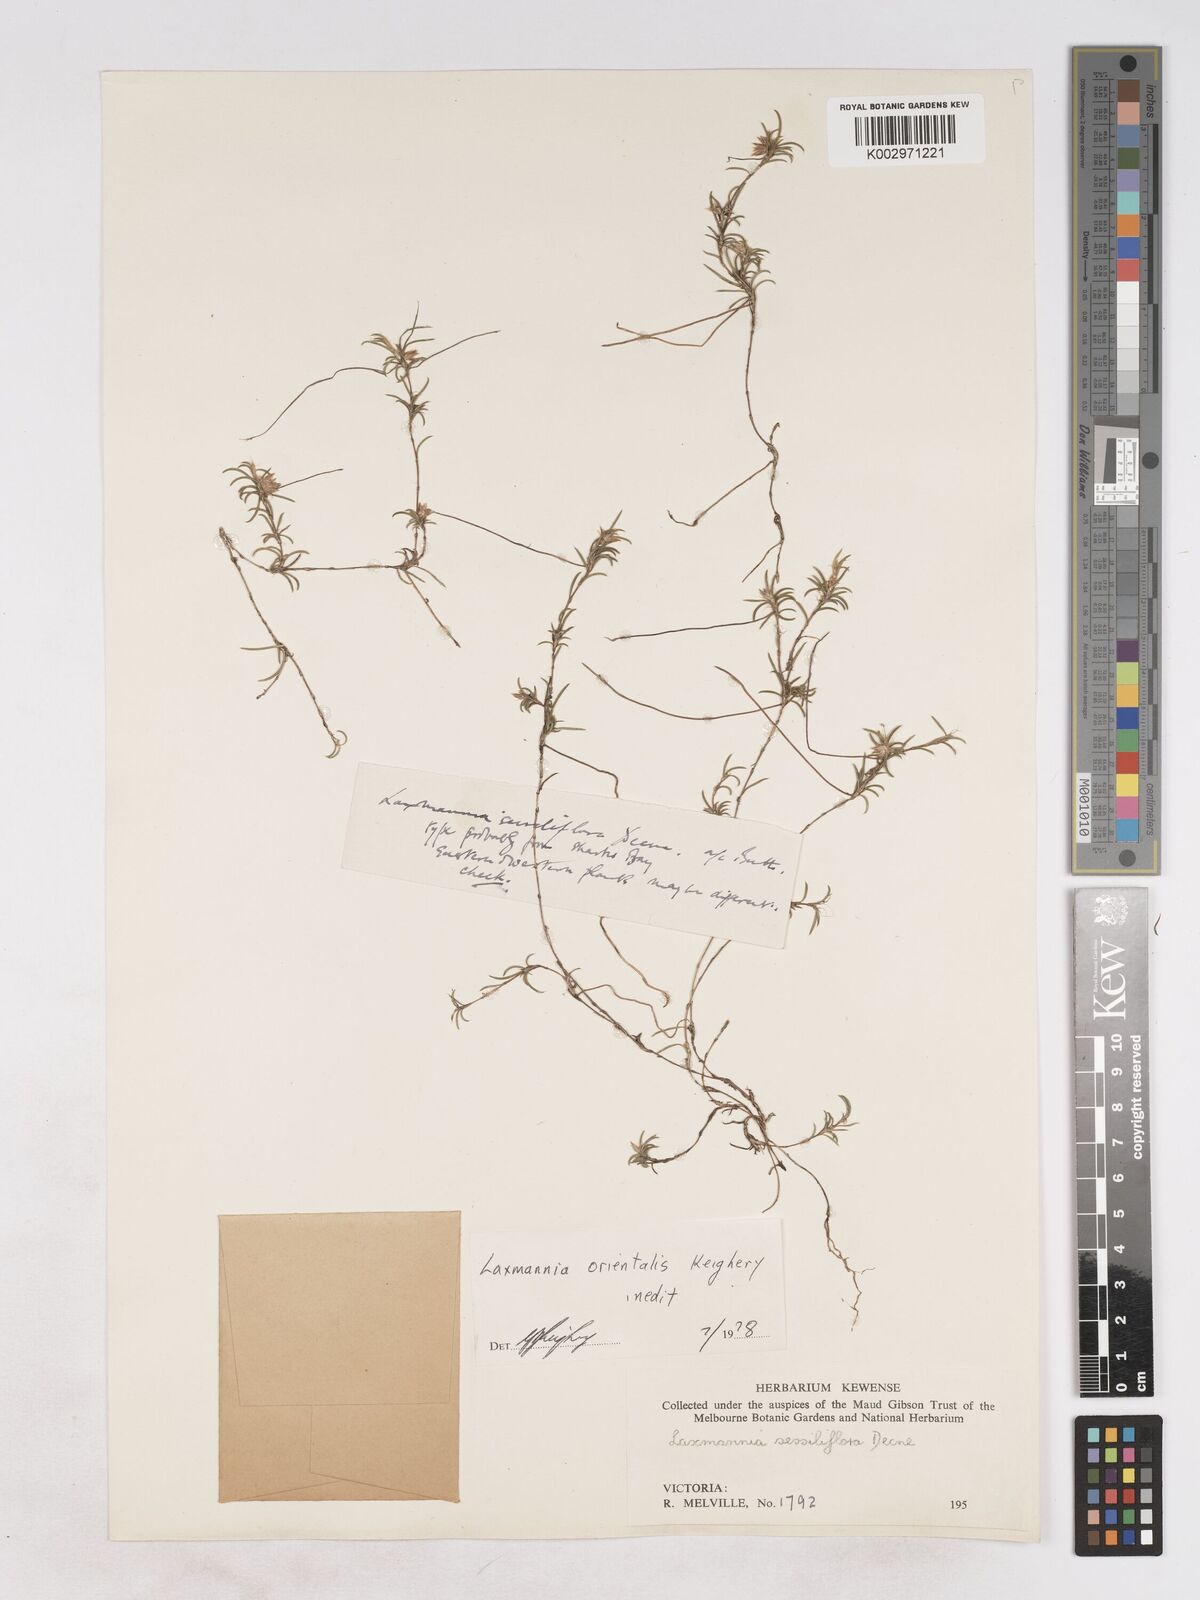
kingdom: Plantae
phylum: Tracheophyta
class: Liliopsida
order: Asparagales
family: Asparagaceae
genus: Laxmannia
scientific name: Laxmannia orientalis
